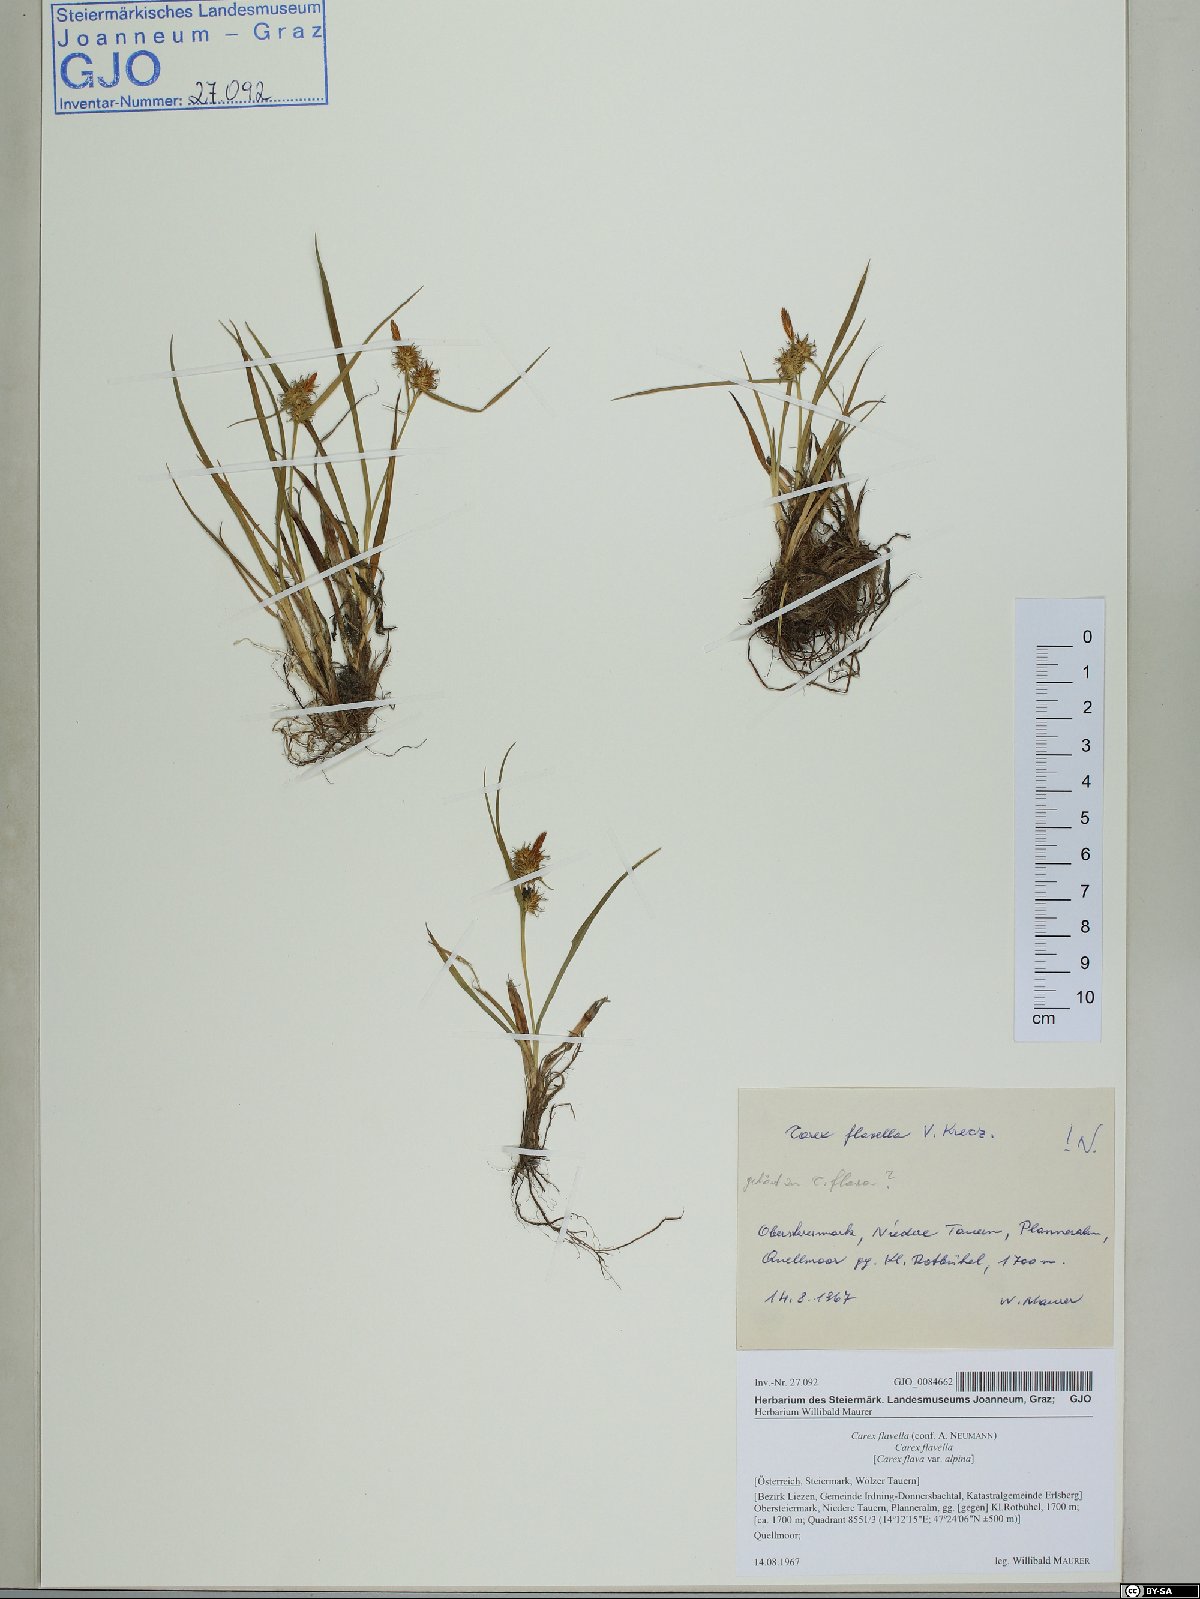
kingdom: Plantae
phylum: Tracheophyta
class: Liliopsida
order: Poales
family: Cyperaceae
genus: Carex
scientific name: Carex flava
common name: Large yellow-sedge
